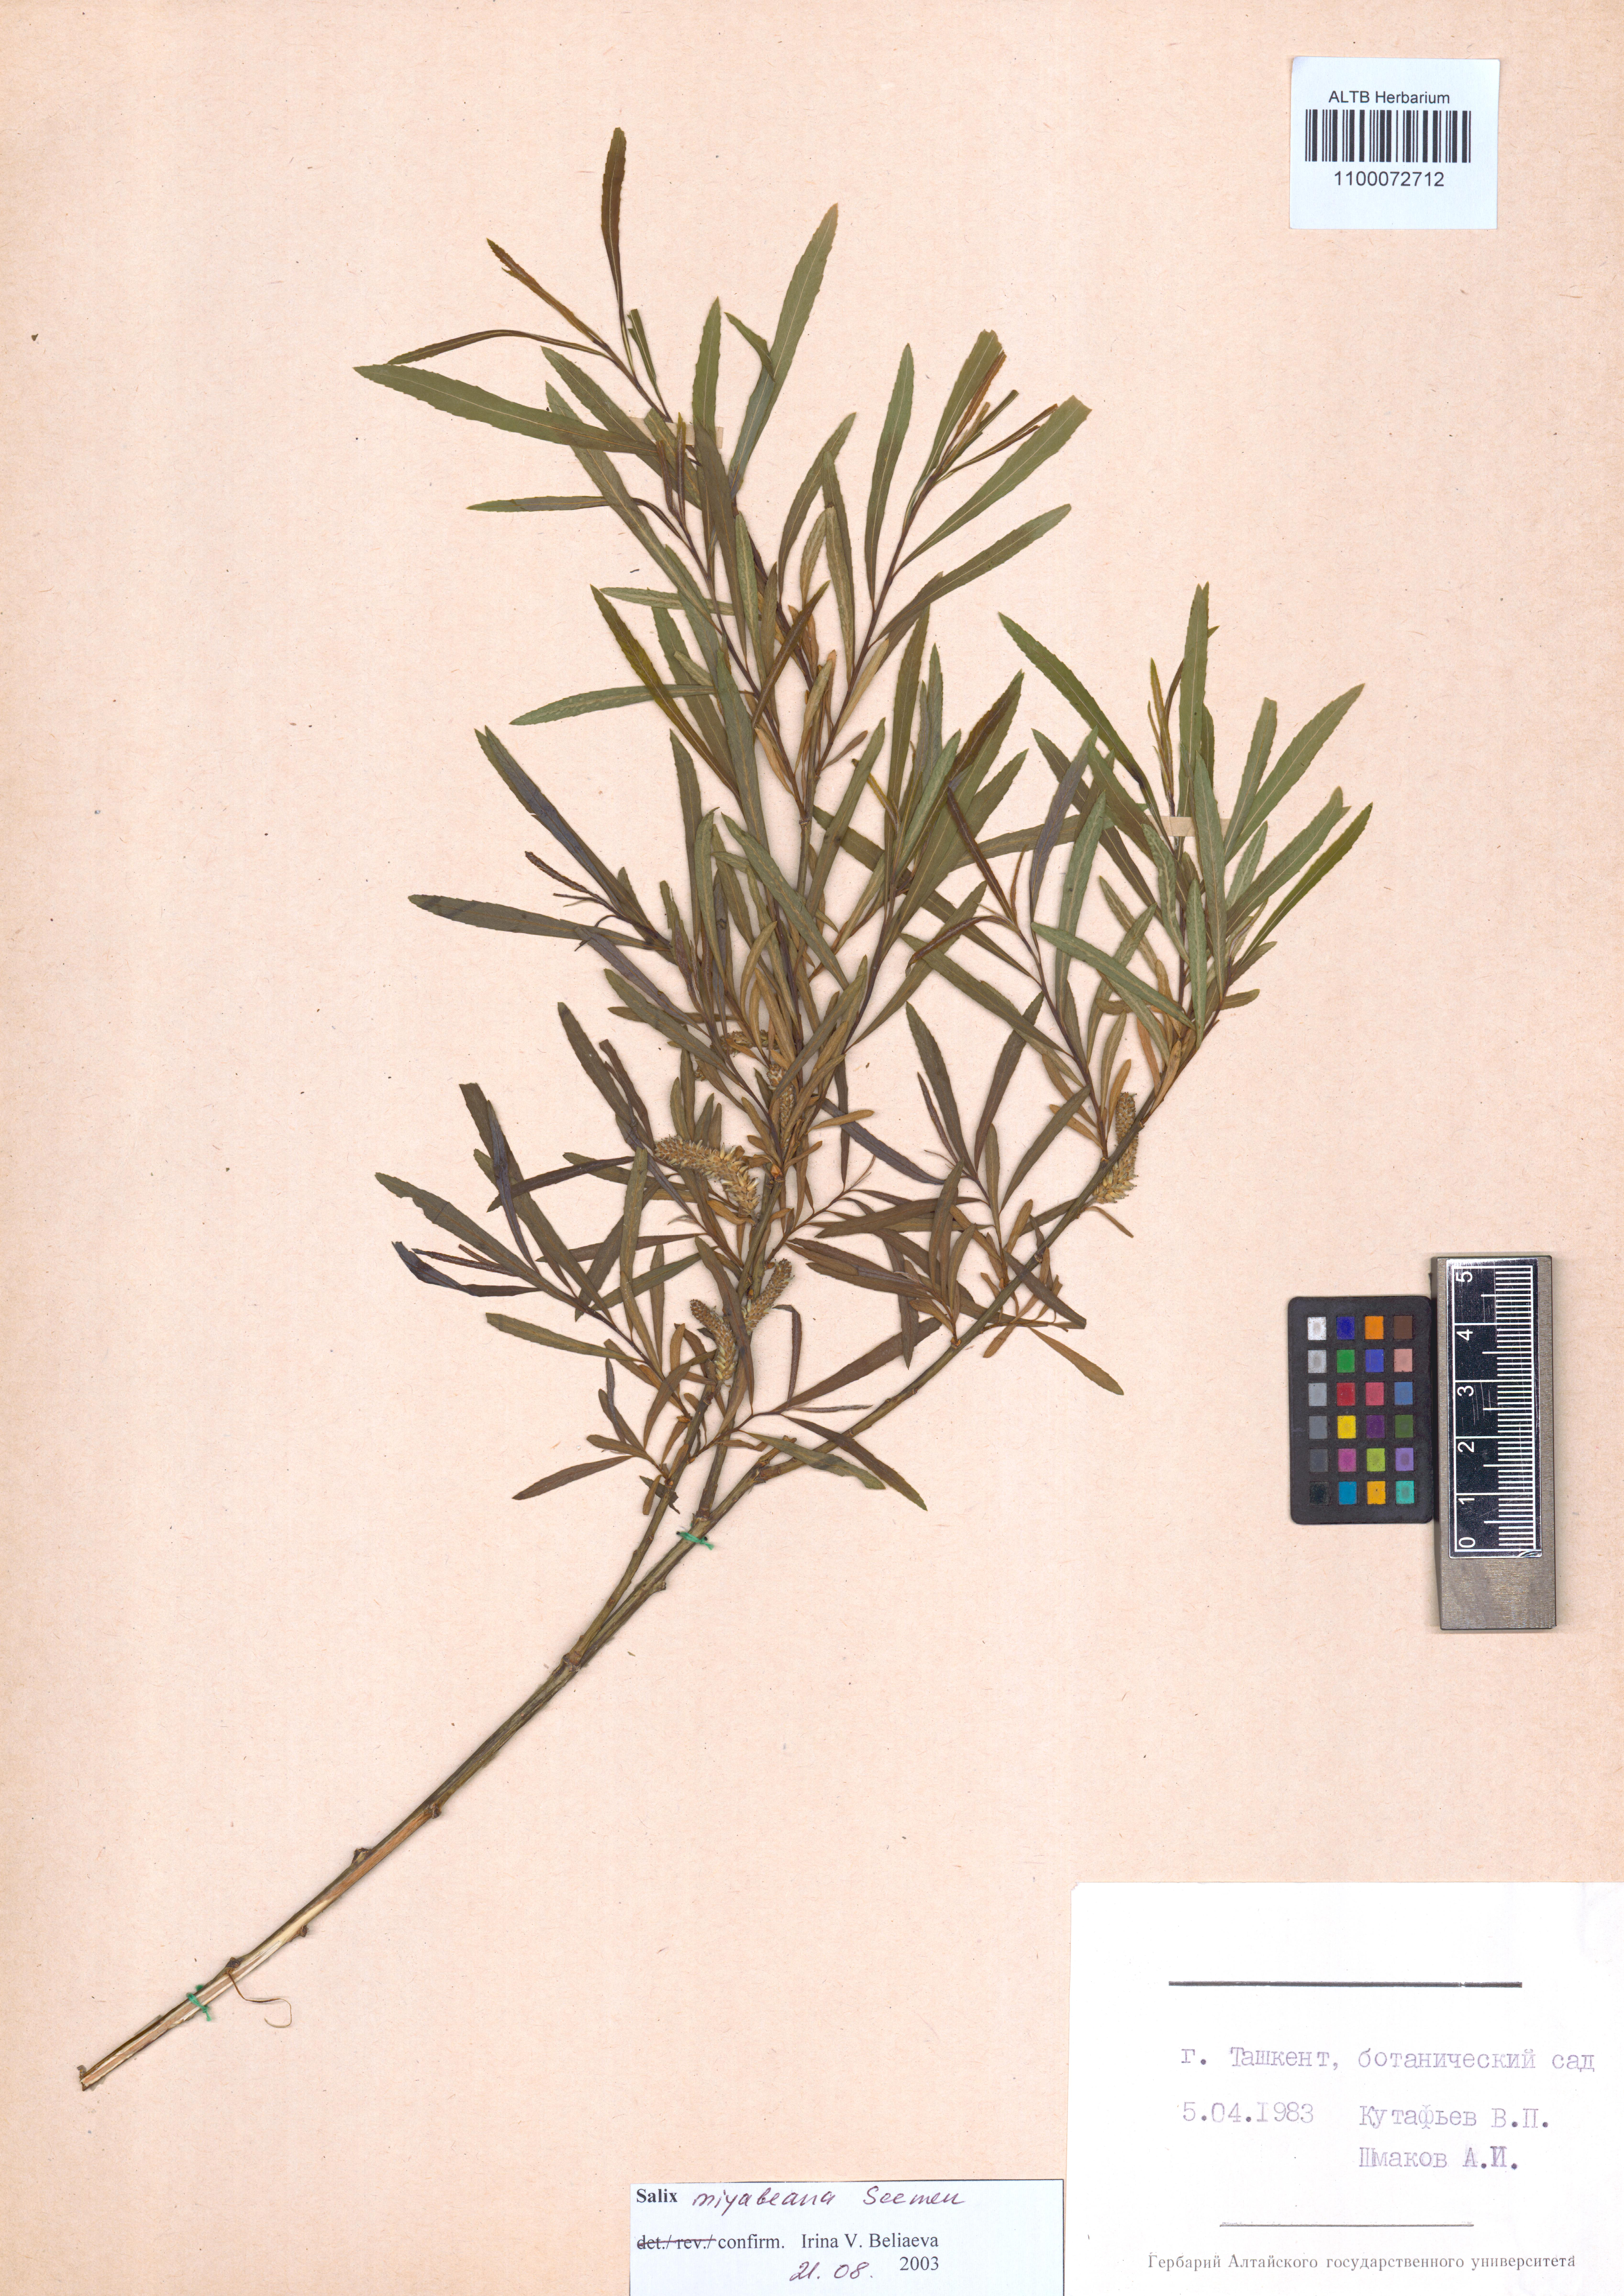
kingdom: Plantae
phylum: Tracheophyta
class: Magnoliopsida
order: Malpighiales
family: Salicaceae
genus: Salix
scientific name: Salix miyabeana
